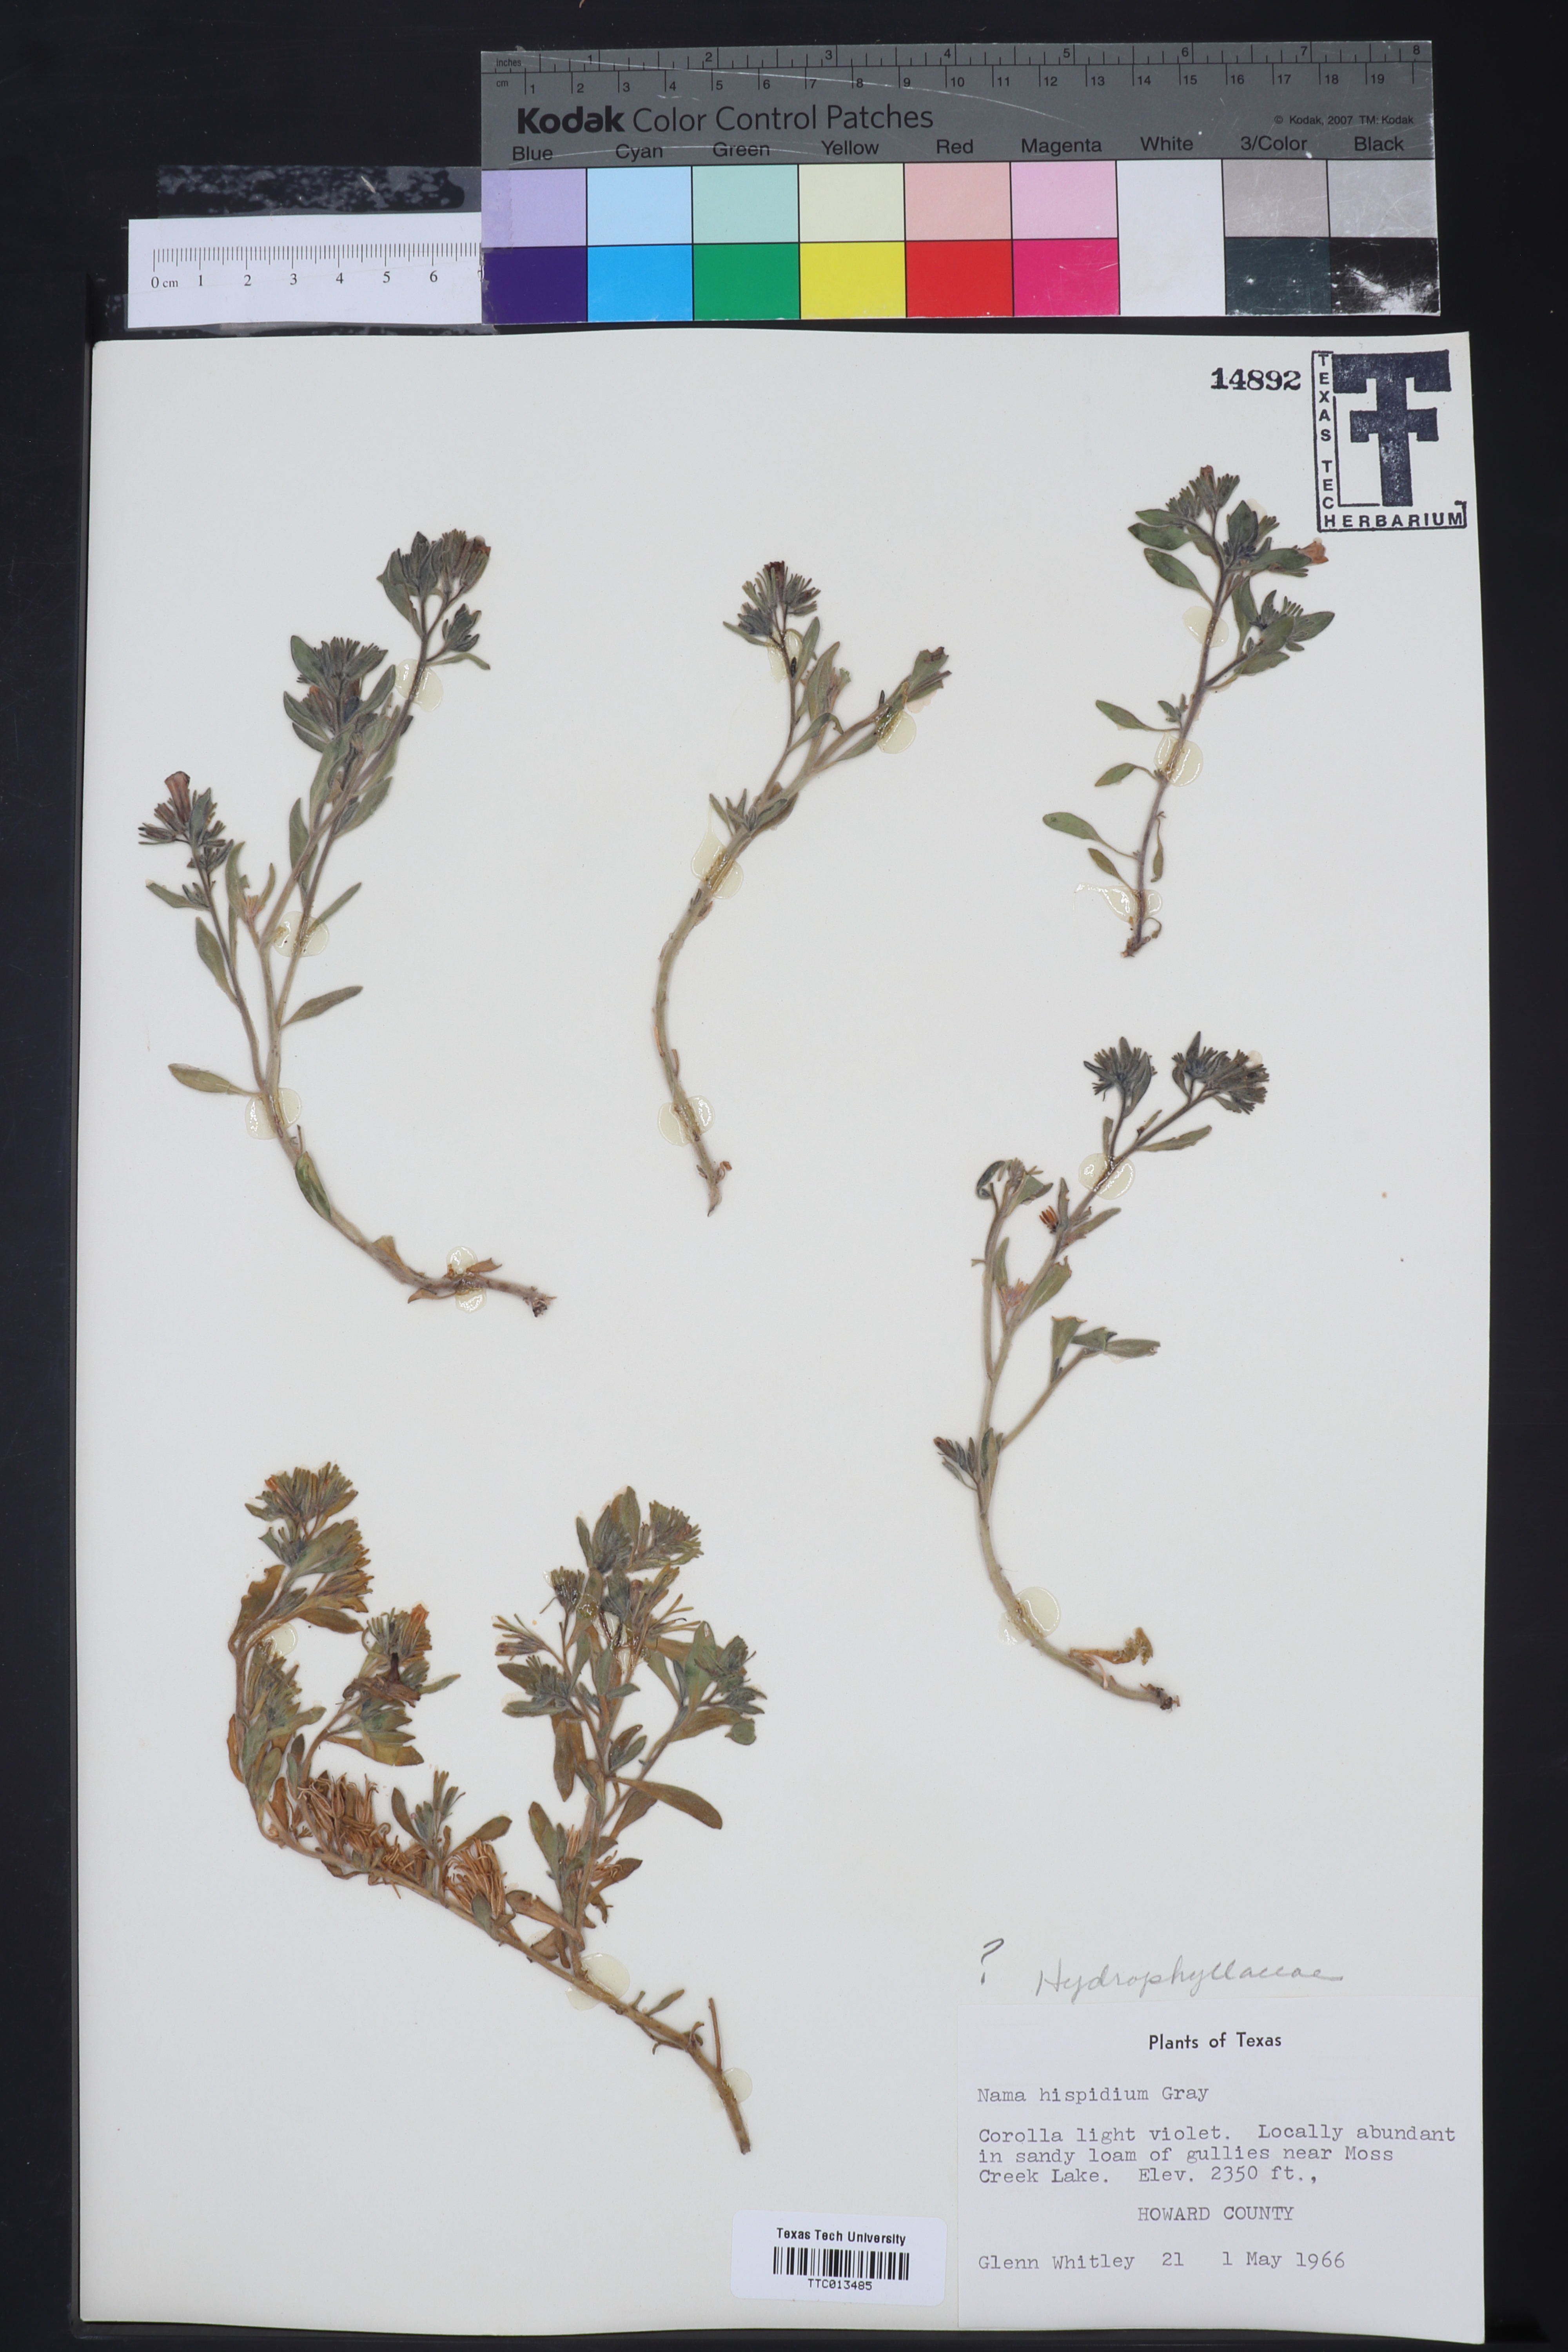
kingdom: Plantae
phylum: Tracheophyta
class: Magnoliopsida
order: Boraginales
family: Namaceae
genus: Nama
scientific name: Nama hispida
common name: Bristly nama
